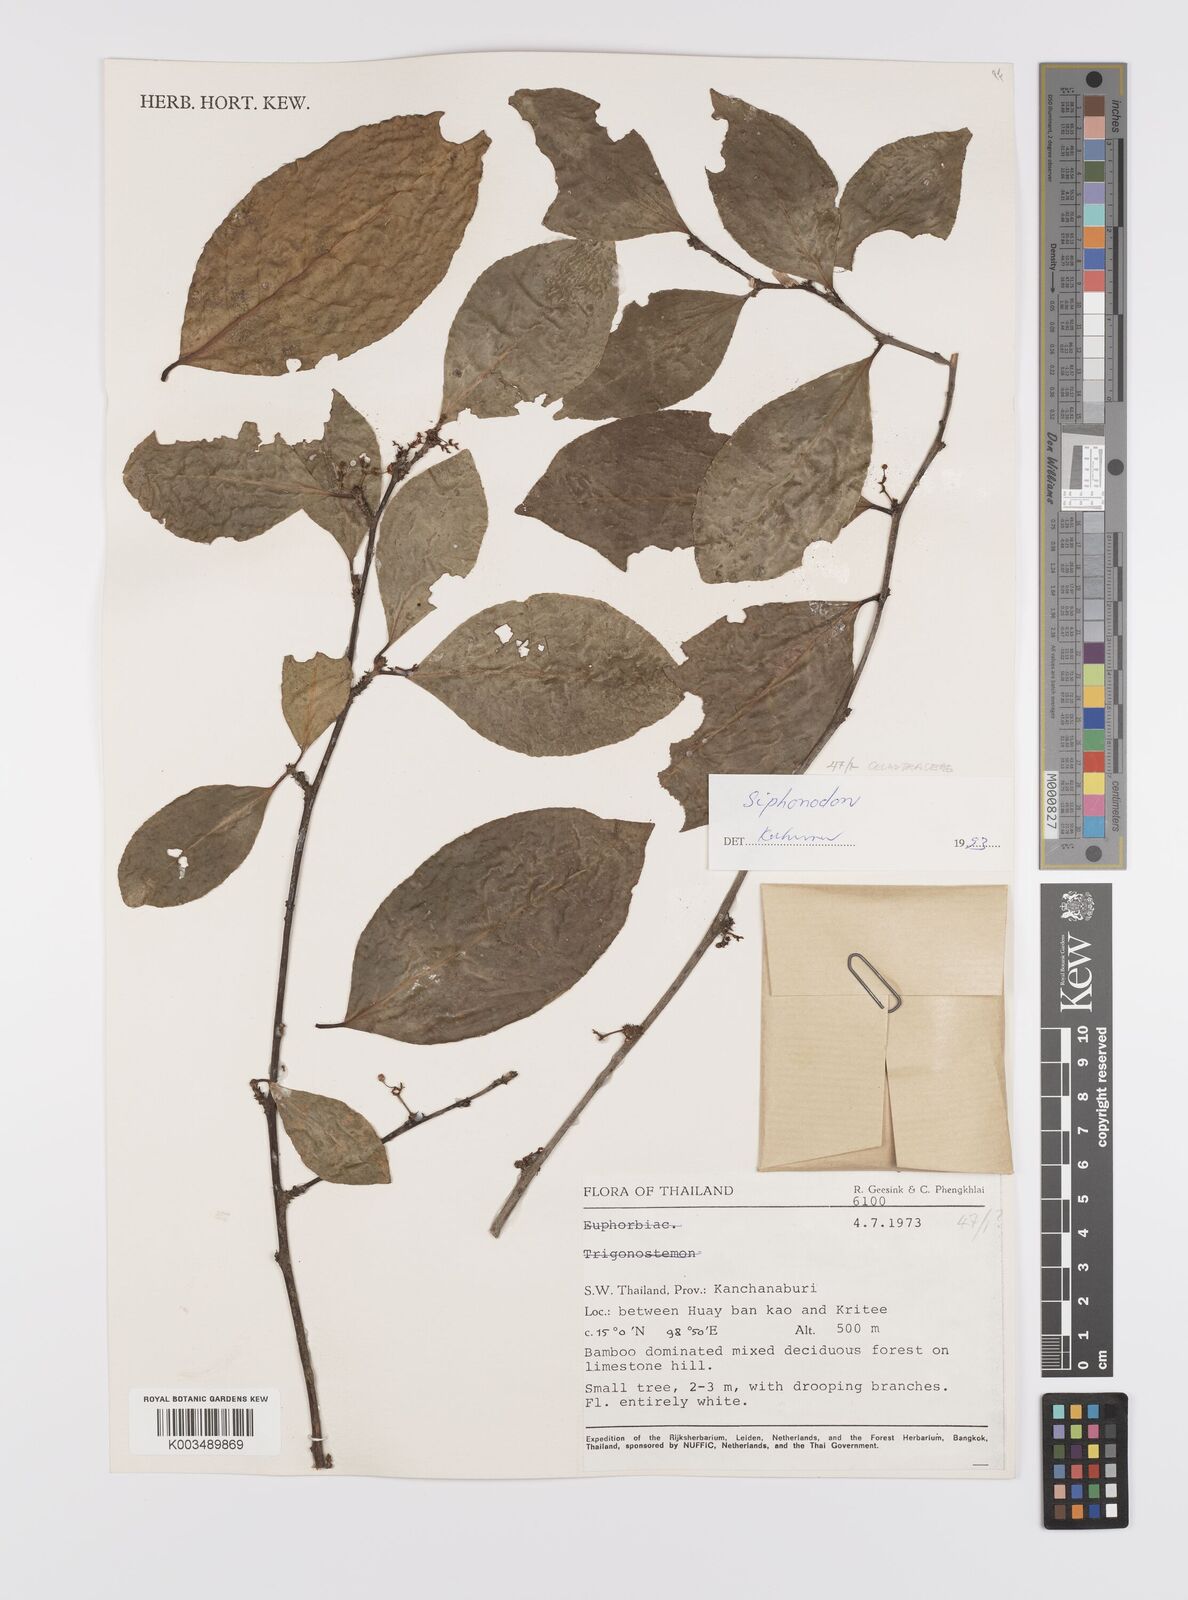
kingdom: Plantae
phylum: Tracheophyta
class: Magnoliopsida
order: Celastrales
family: Celastraceae
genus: Siphonodon
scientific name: Siphonodon
